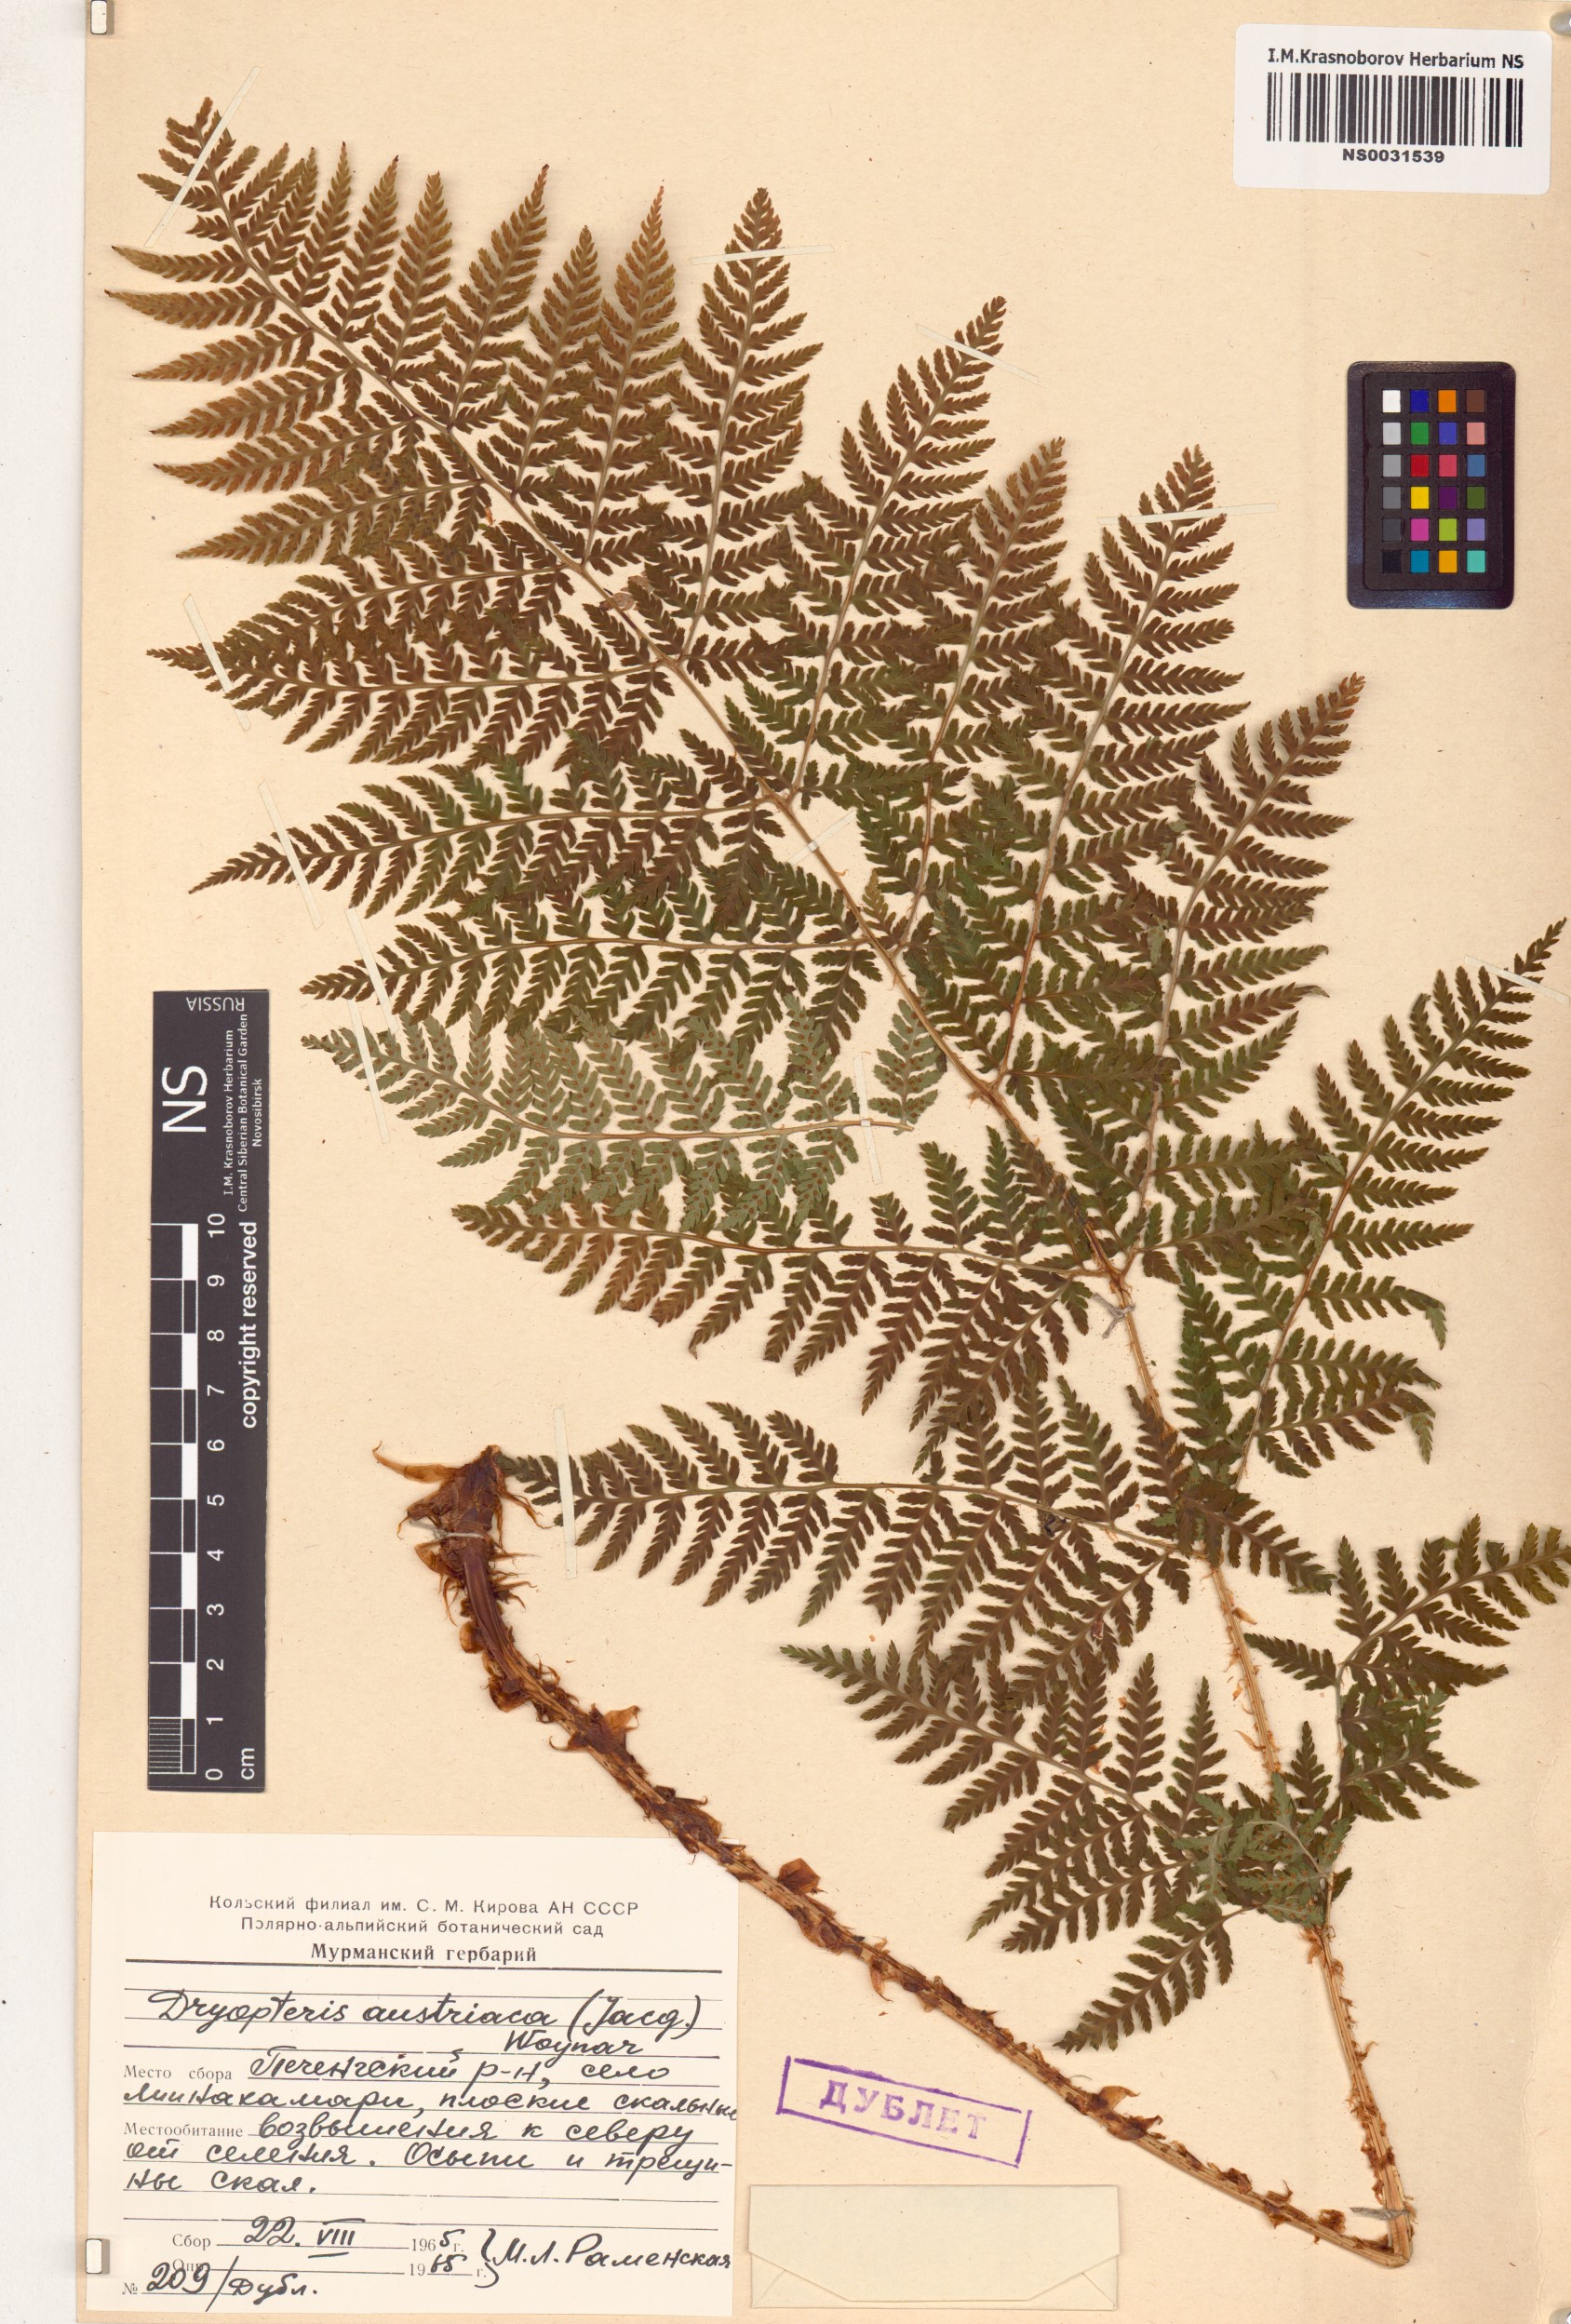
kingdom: Plantae
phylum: Tracheophyta
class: Polypodiopsida
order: Polypodiales
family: Dryopteridaceae
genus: Dryopteris
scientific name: Dryopteris dilatata
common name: Broad buckler-fern
